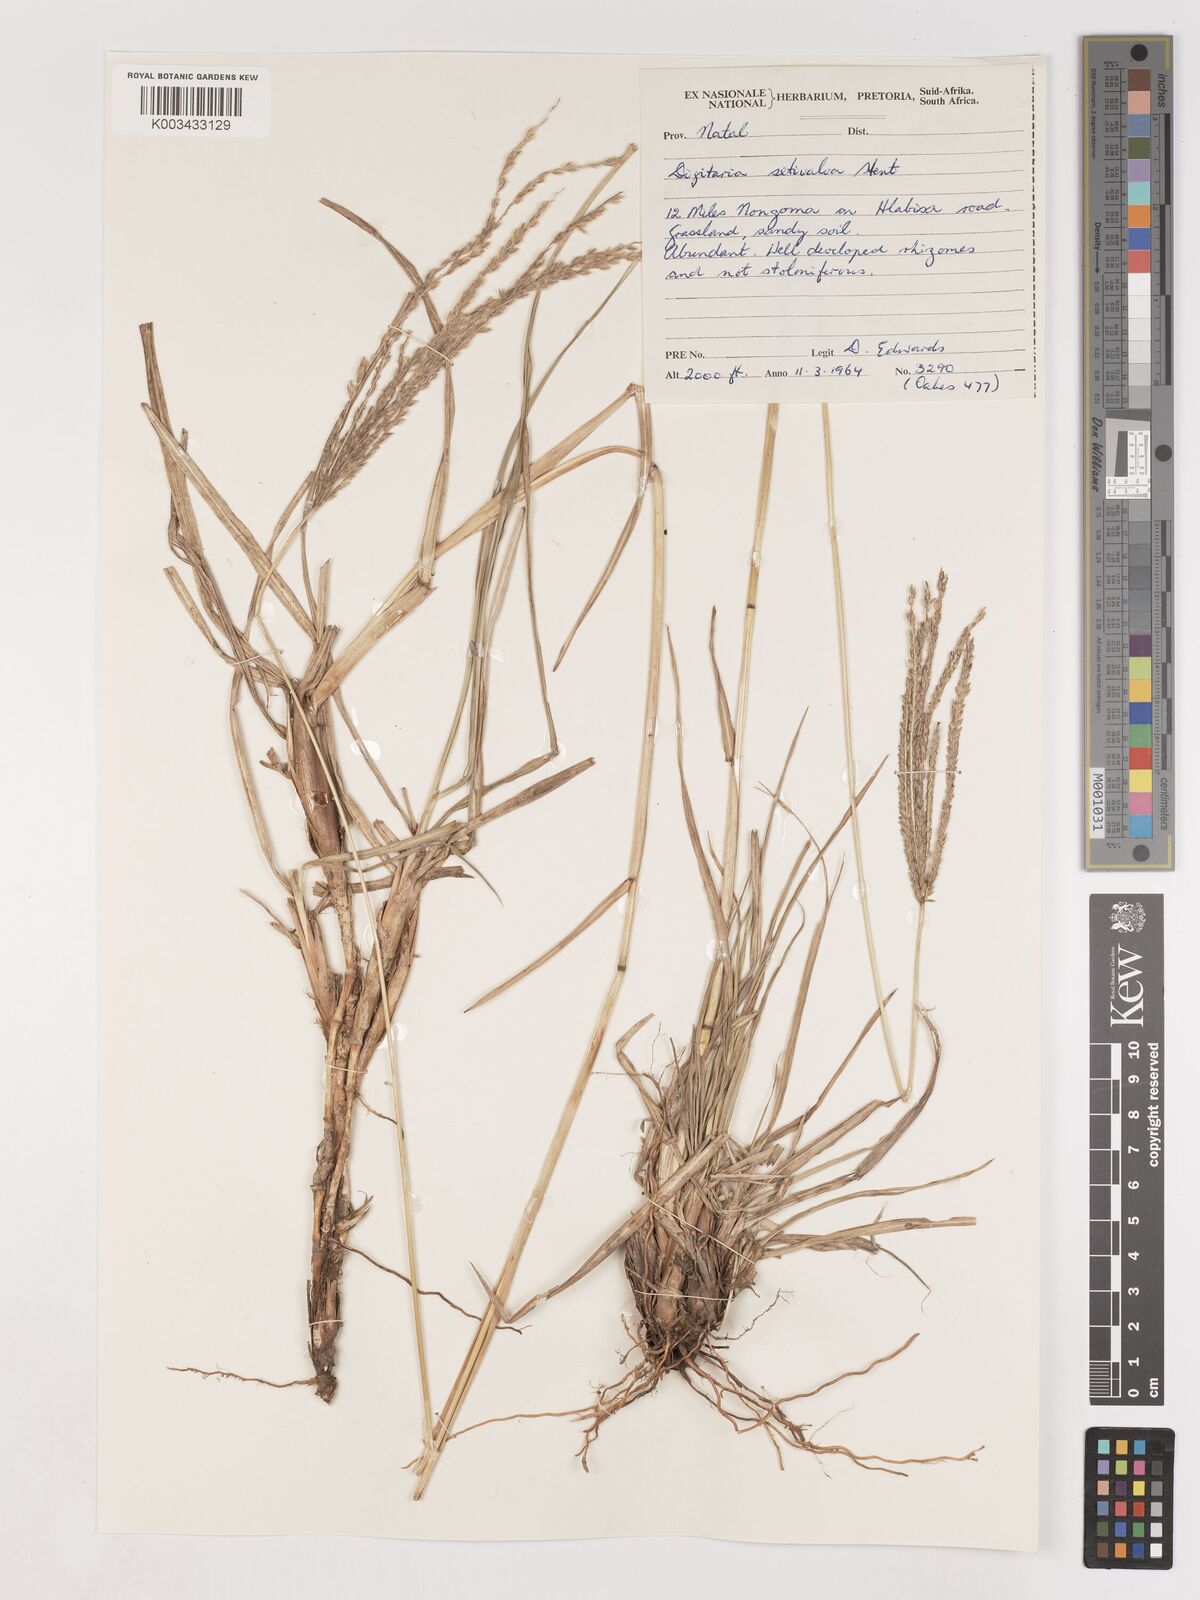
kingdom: Plantae
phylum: Tracheophyta
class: Liliopsida
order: Poales
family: Poaceae
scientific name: Poaceae
